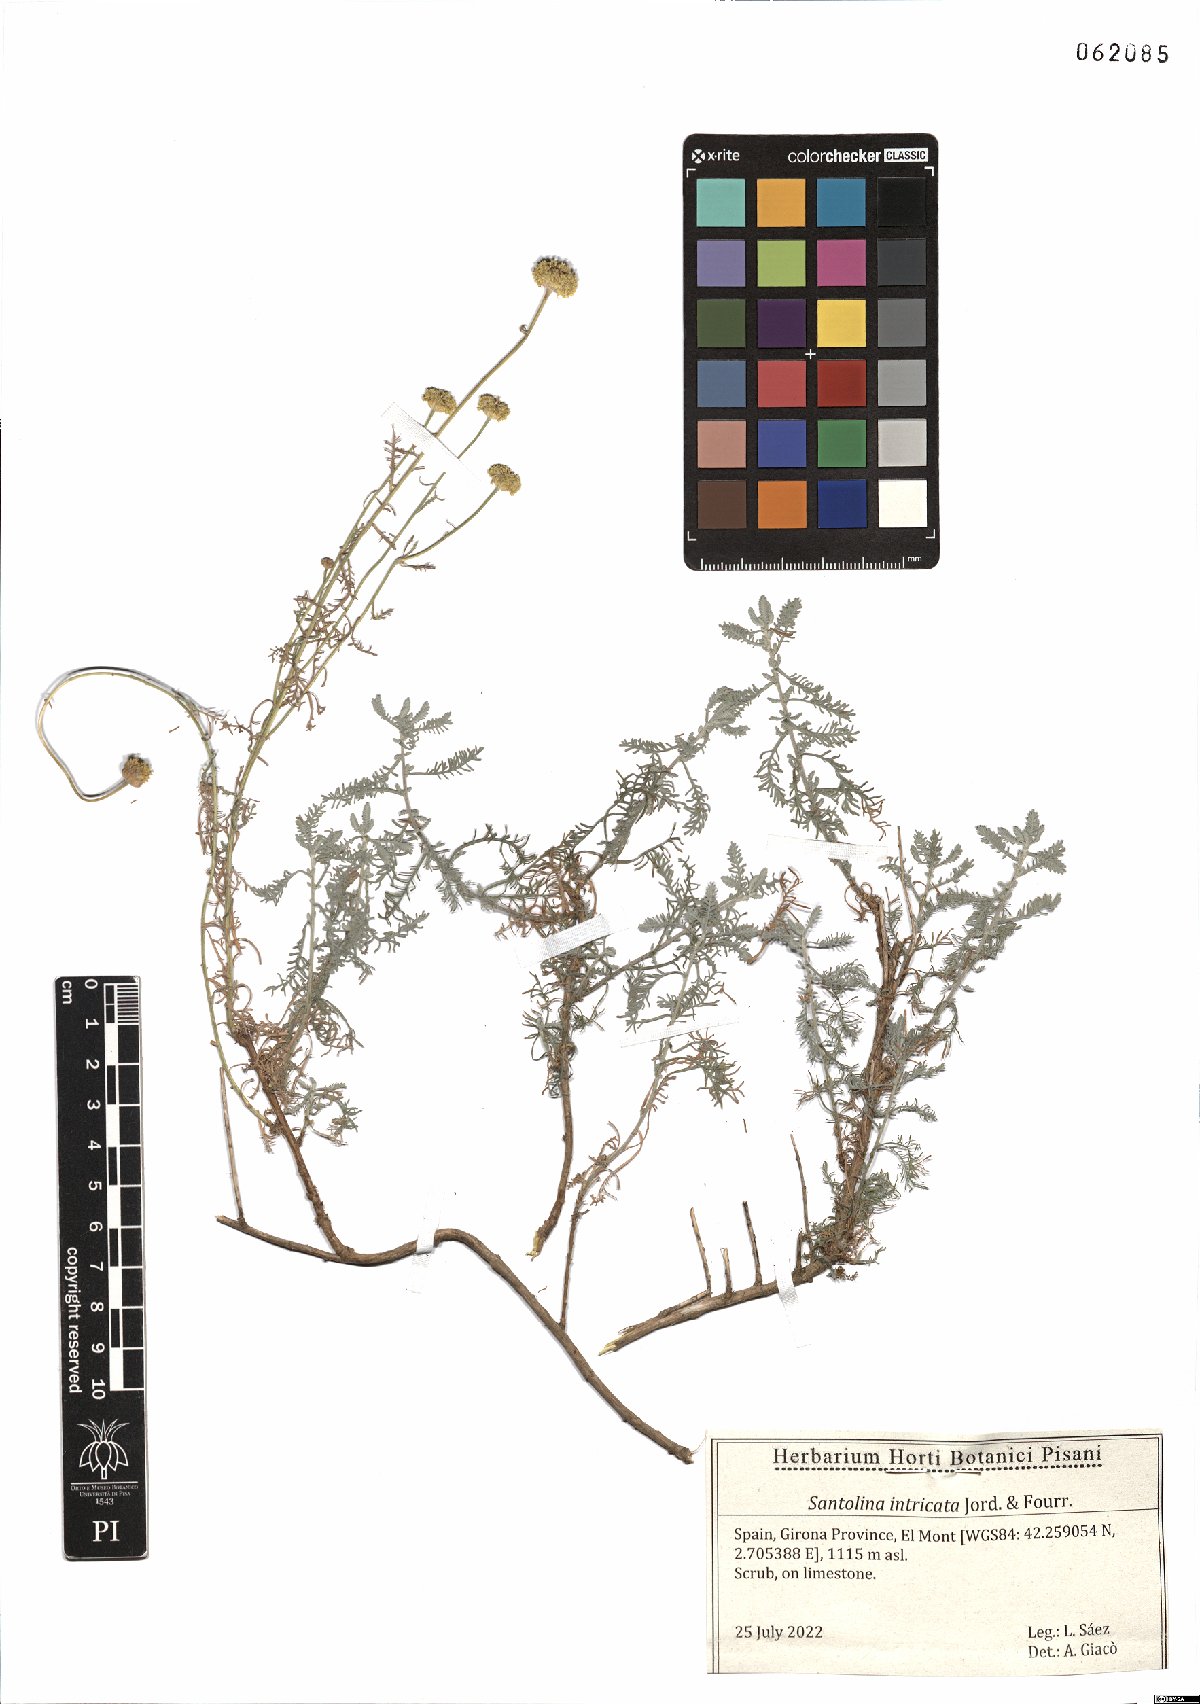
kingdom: Plantae
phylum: Tracheophyta
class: Magnoliopsida
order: Asterales
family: Asteraceae
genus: Santolina
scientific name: Santolina benthamiana
